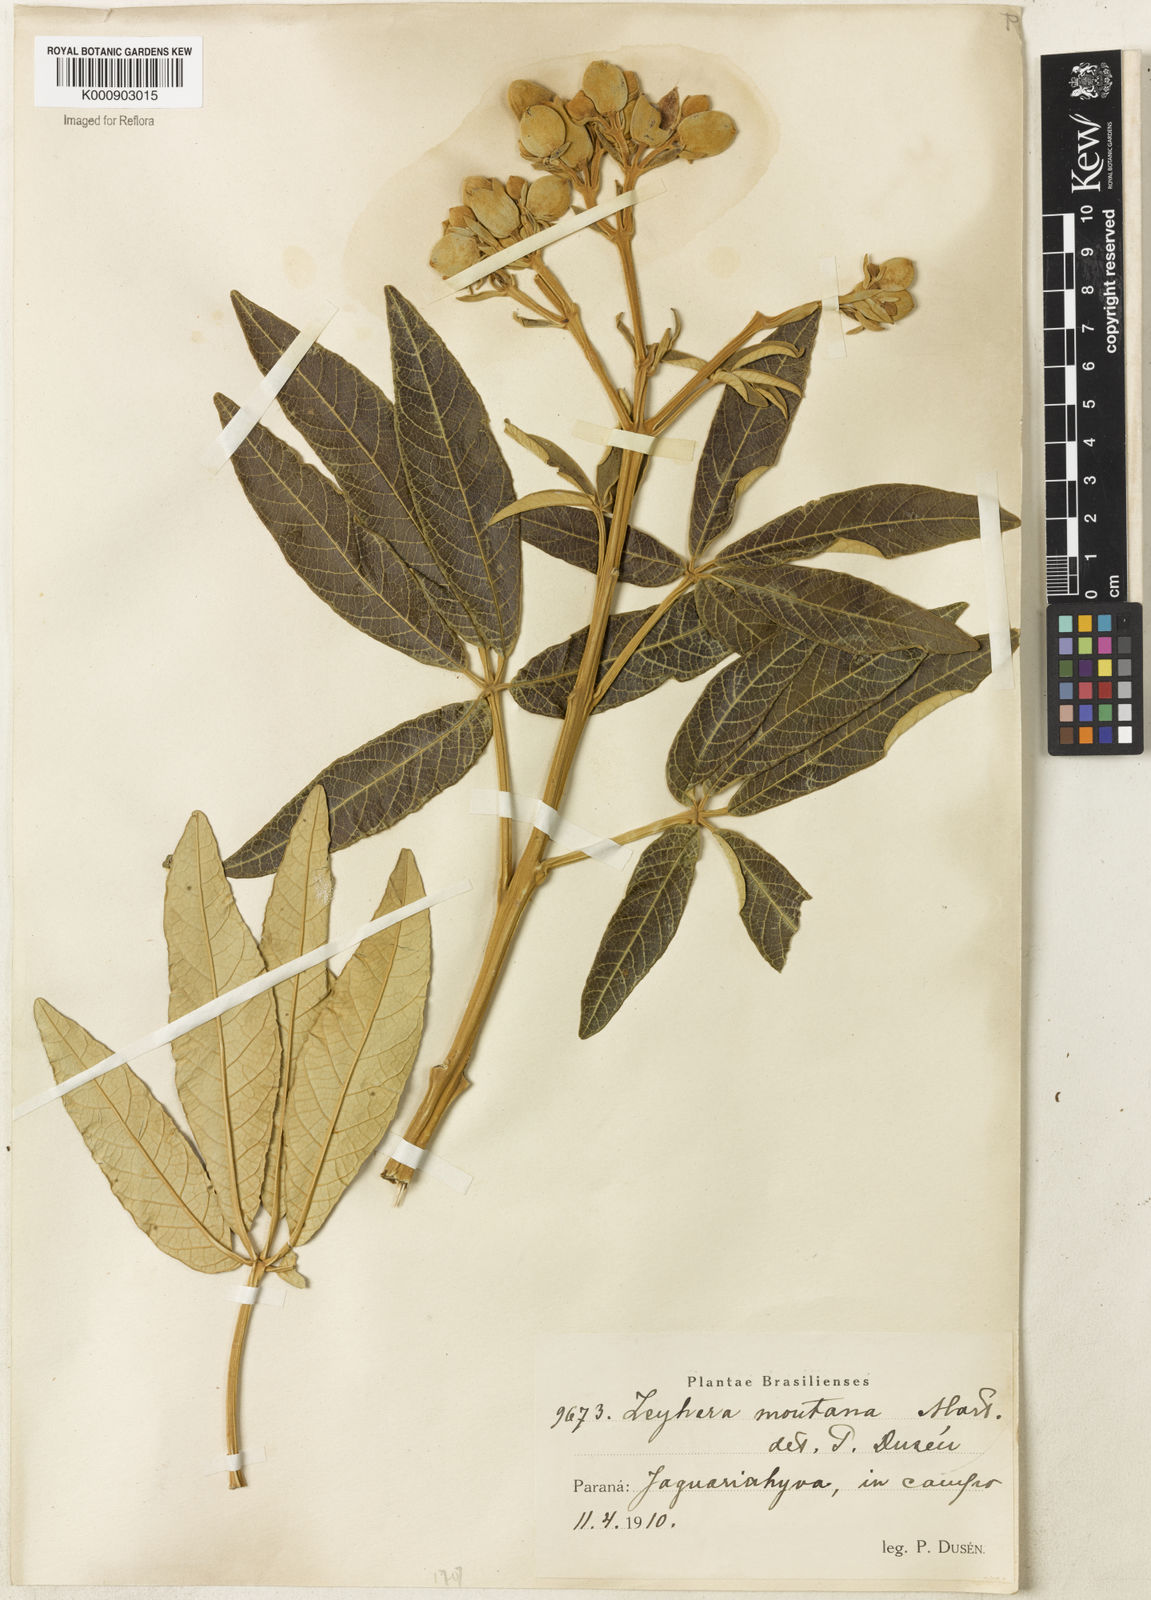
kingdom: Plantae
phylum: Tracheophyta
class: Magnoliopsida
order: Lamiales
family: Bignoniaceae
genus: Zeyheria
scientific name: Zeyheria montana
